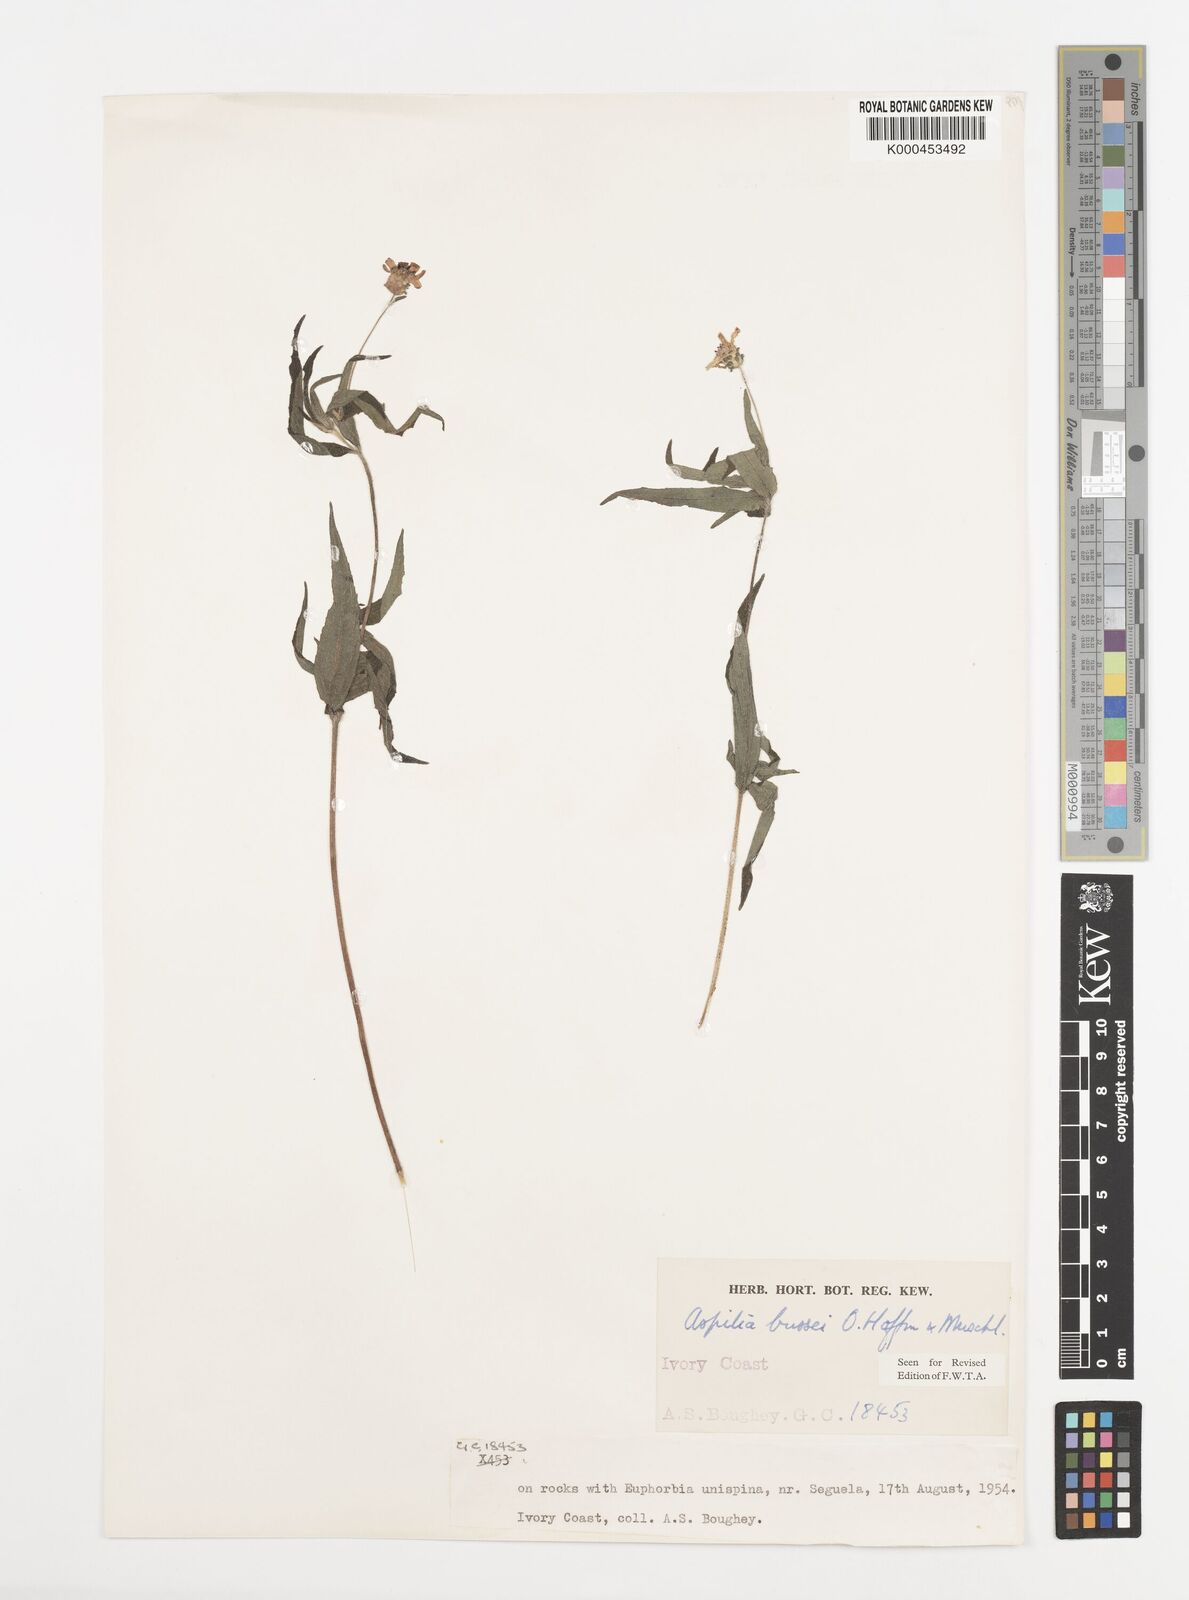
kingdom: Plantae
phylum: Tracheophyta
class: Magnoliopsida
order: Asterales
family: Asteraceae
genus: Aspilia
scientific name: Aspilia bussei
